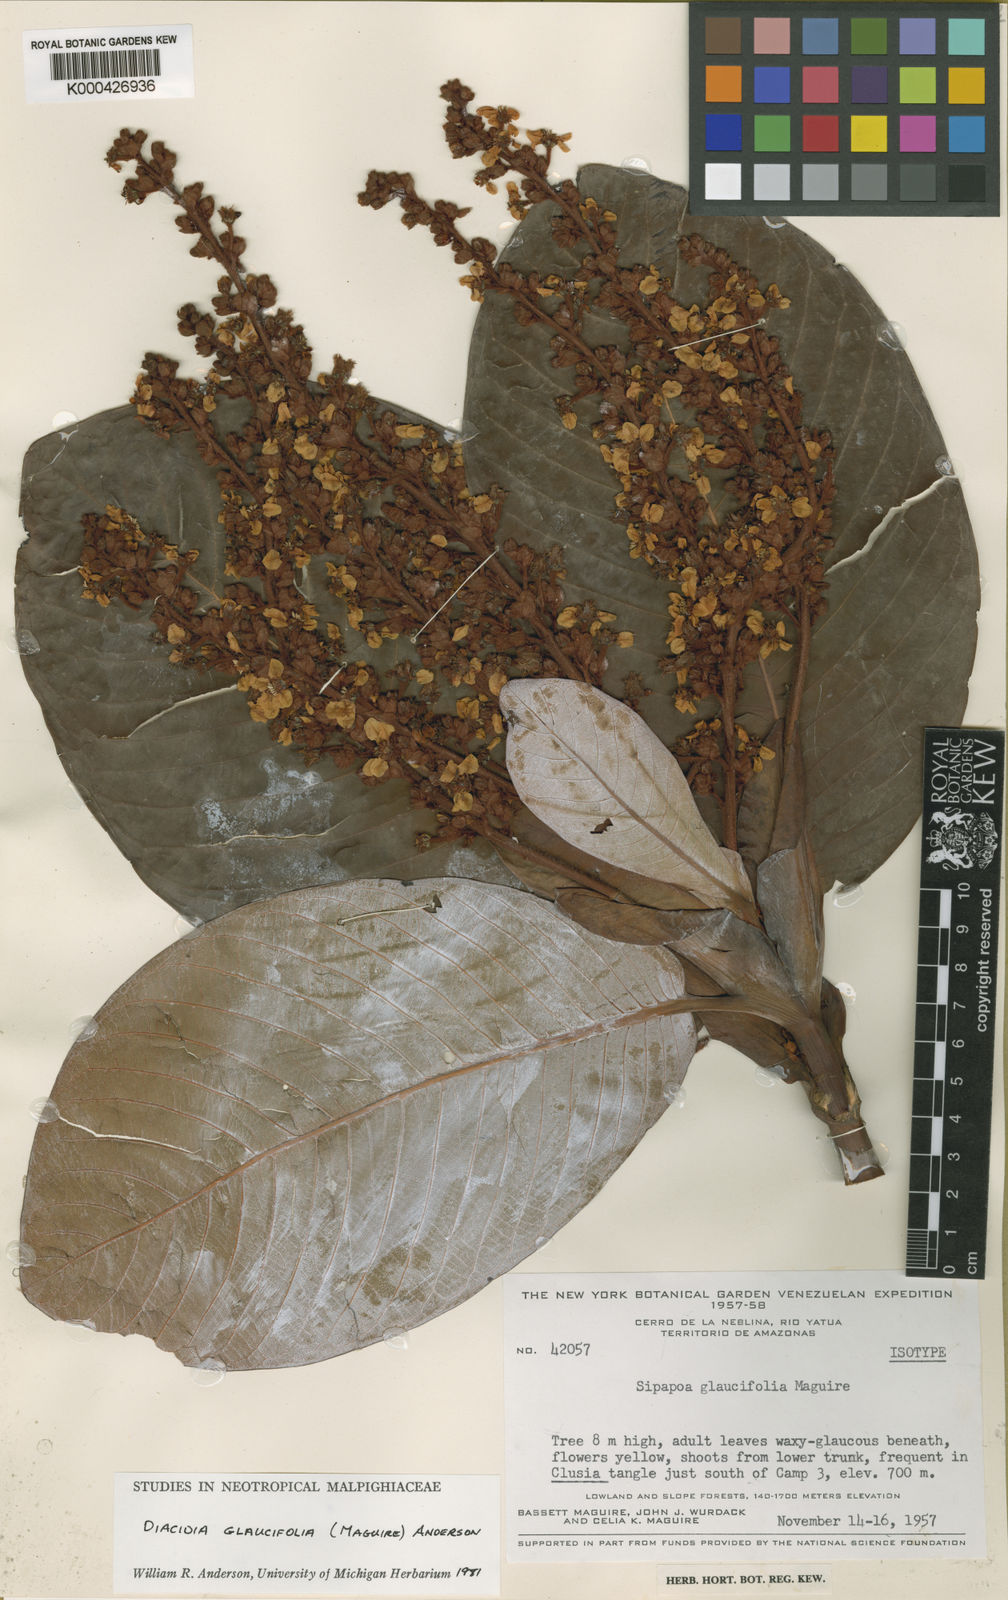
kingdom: Plantae
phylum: Tracheophyta
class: Magnoliopsida
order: Malpighiales
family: Malpighiaceae
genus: Diacidia
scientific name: Diacidia glaucifolia
